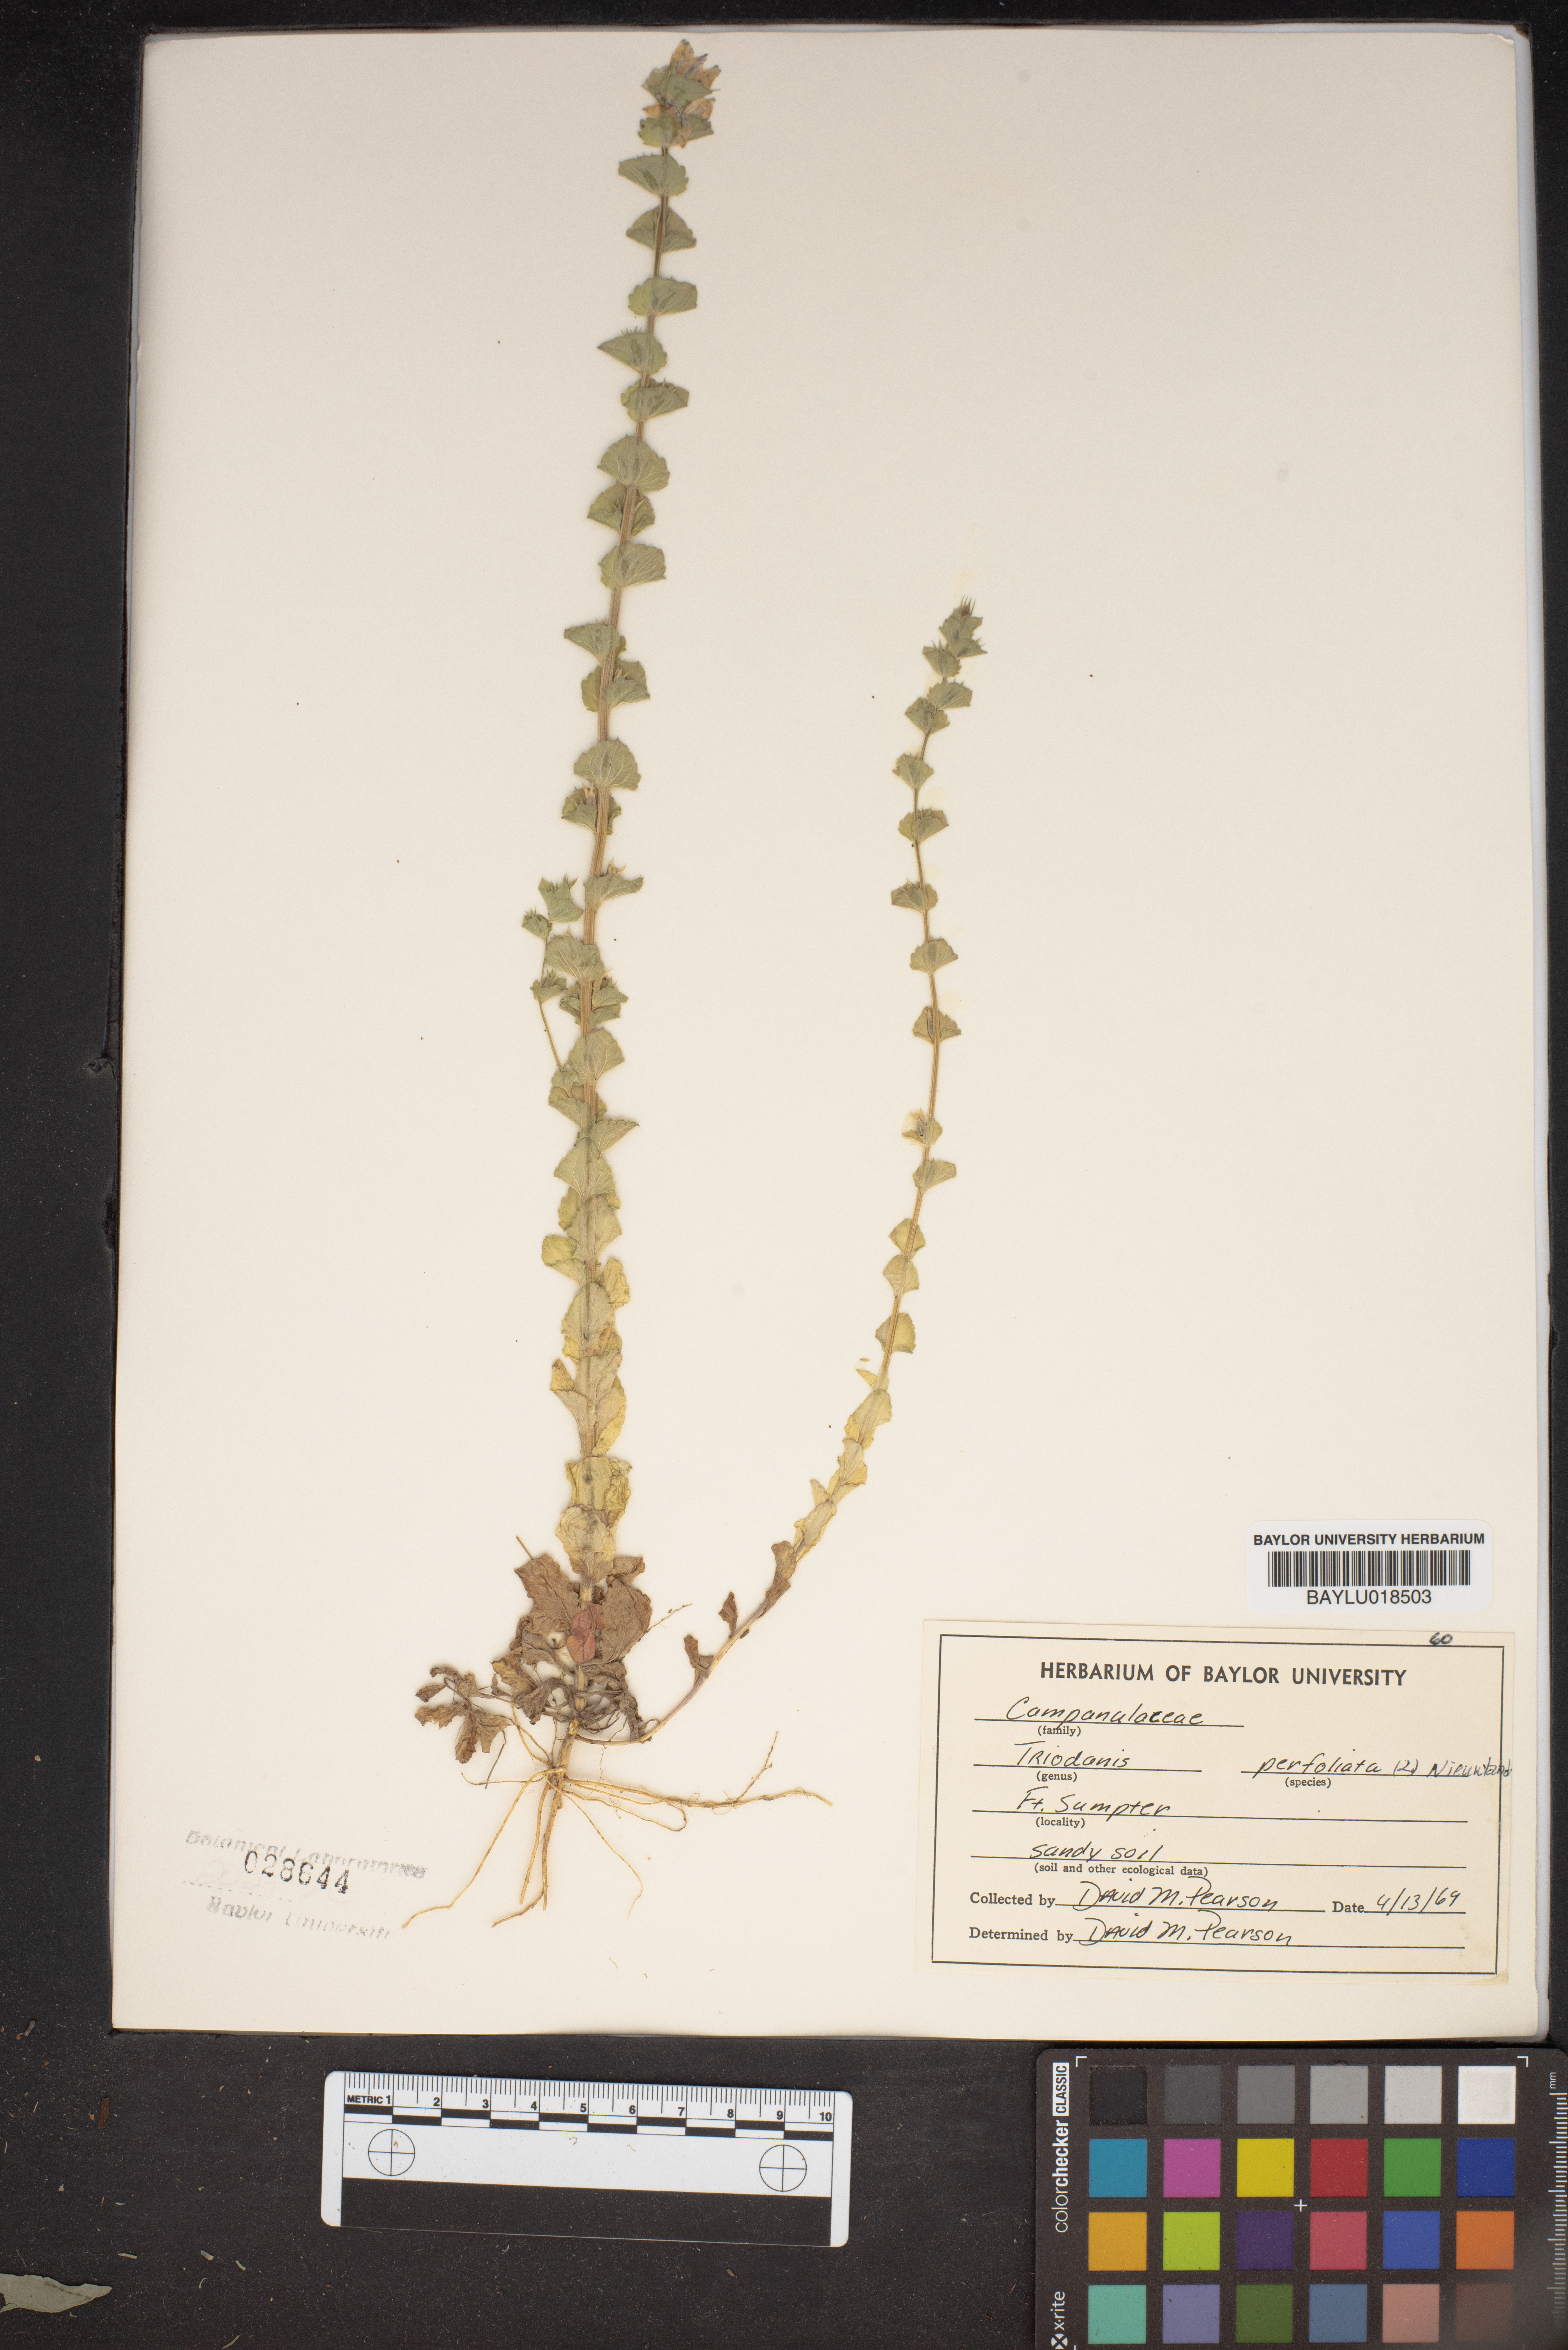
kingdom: Plantae
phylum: Tracheophyta
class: Magnoliopsida
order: Asterales
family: Campanulaceae
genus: Triodanis
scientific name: Triodanis perfoliata
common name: Clasping venus' looking-glass
